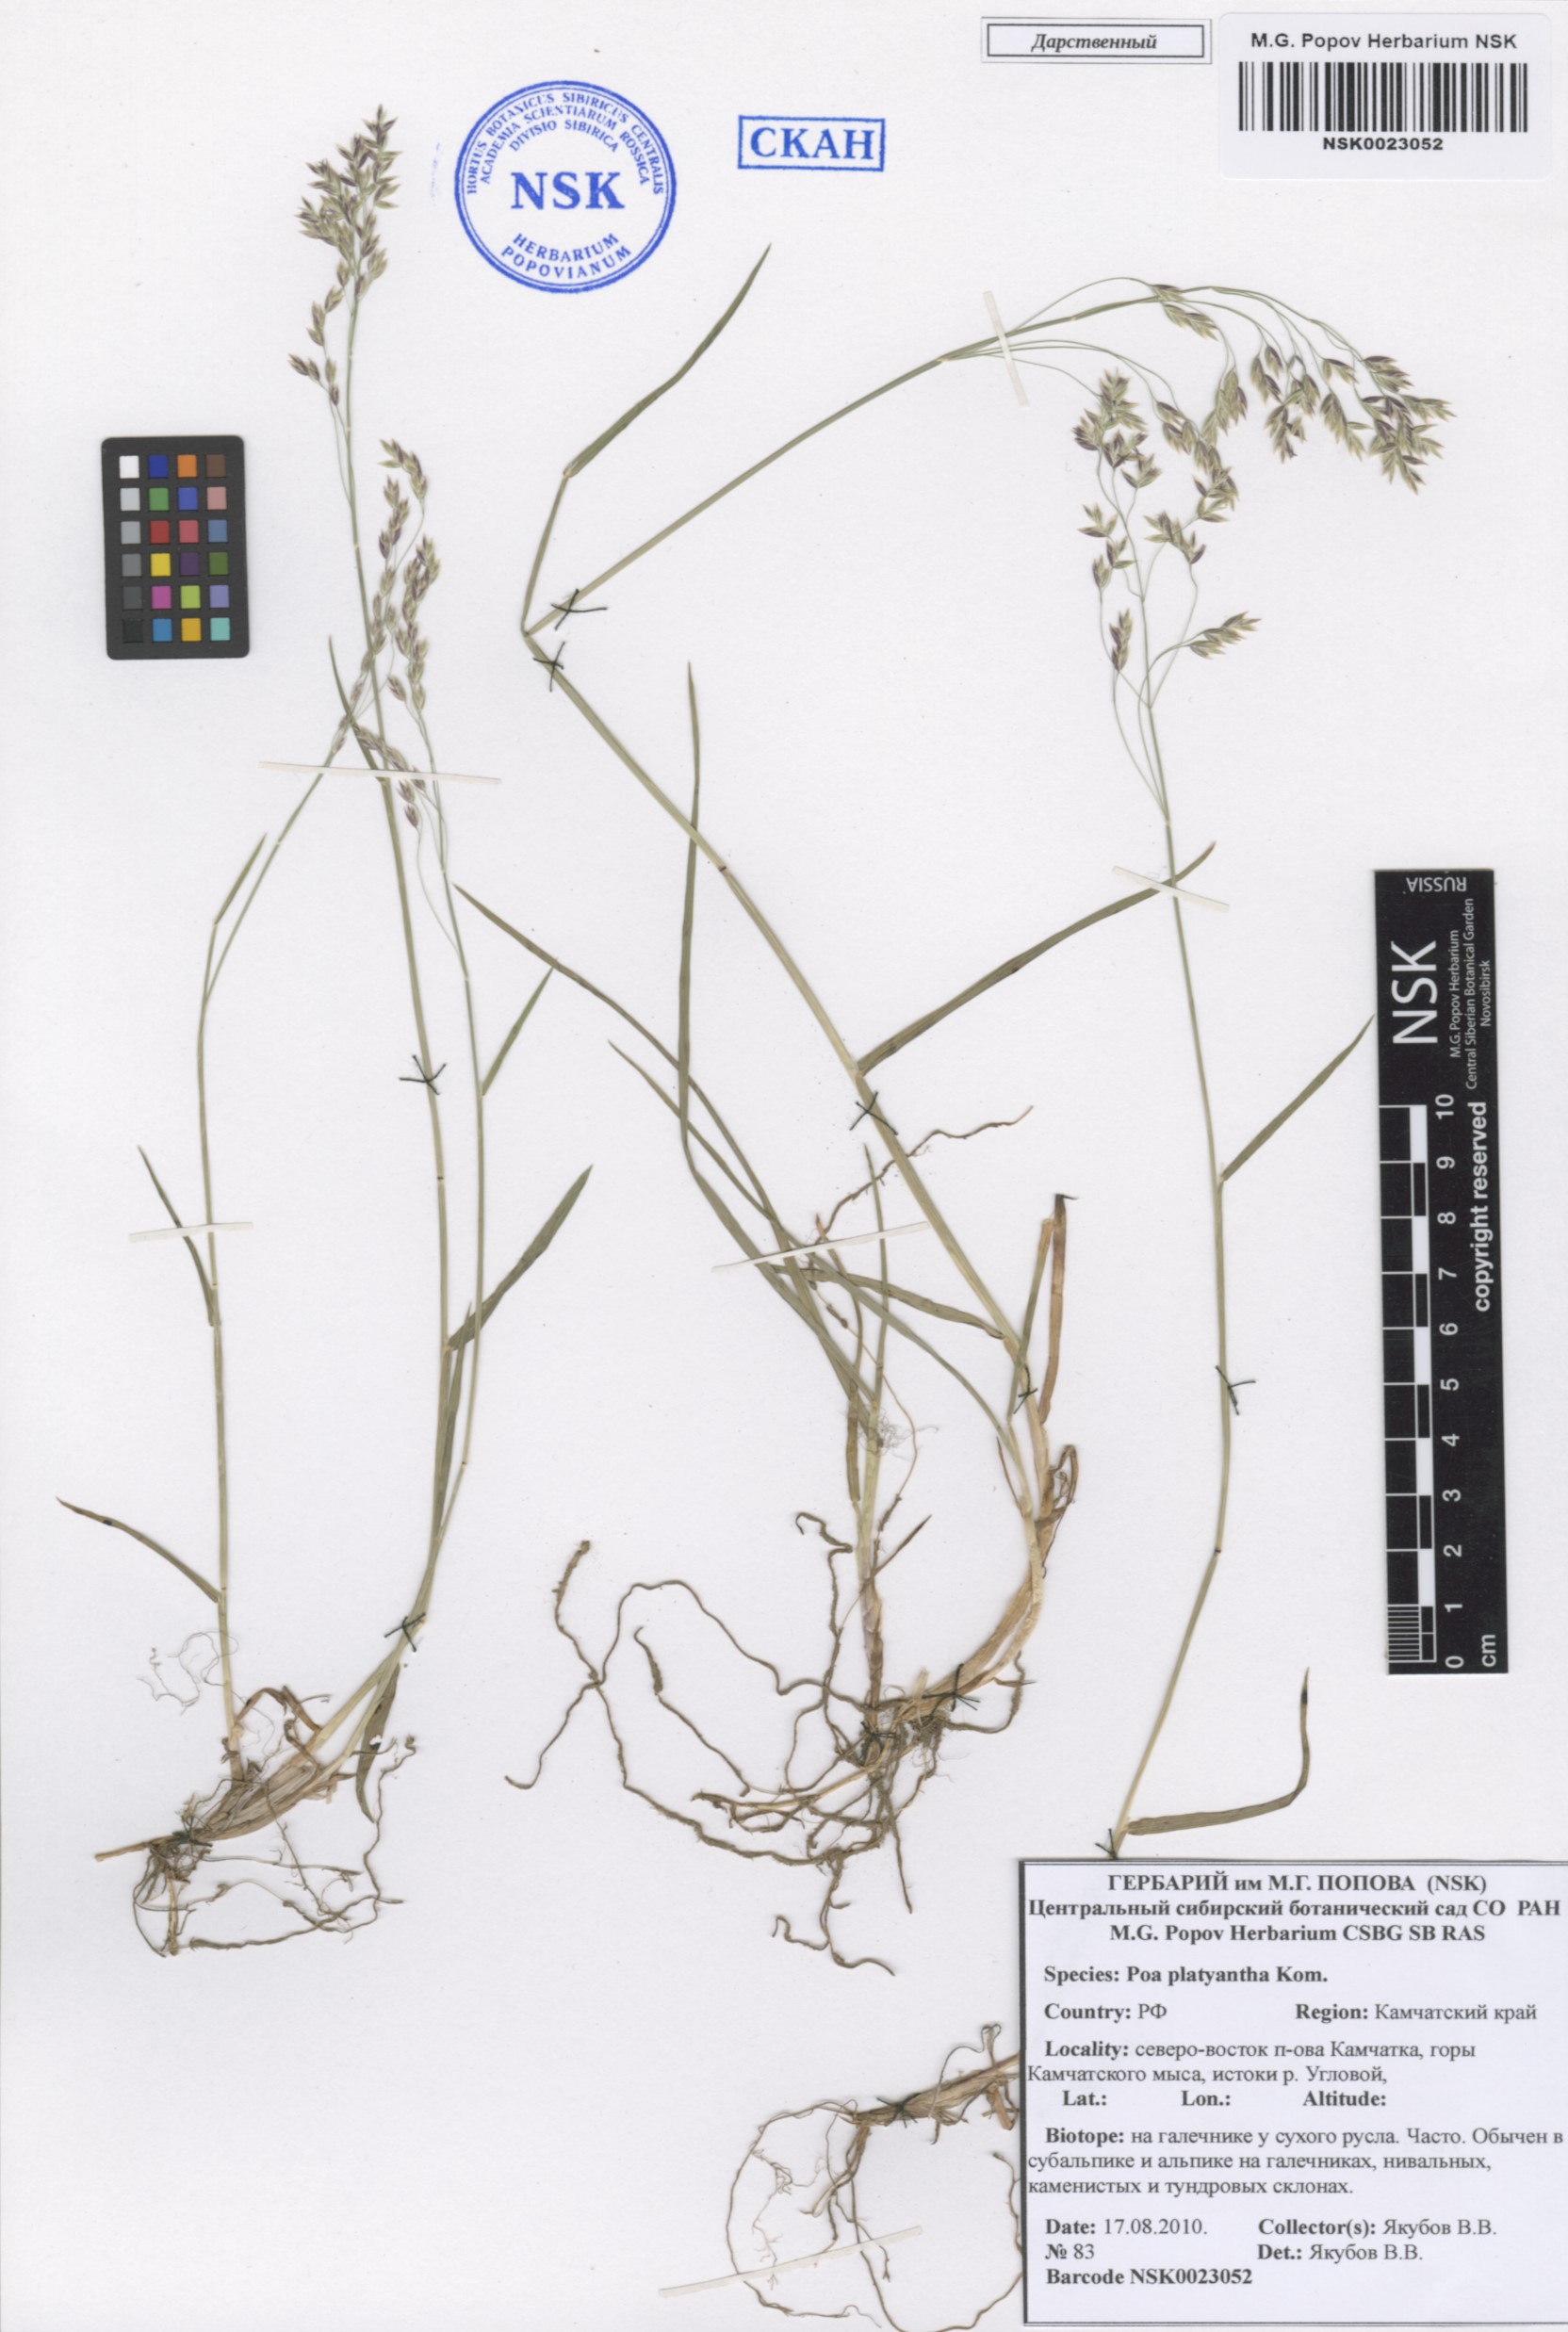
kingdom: Plantae
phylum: Tracheophyta
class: Liliopsida
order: Poales
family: Poaceae
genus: Poa
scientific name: Poa platyantha
